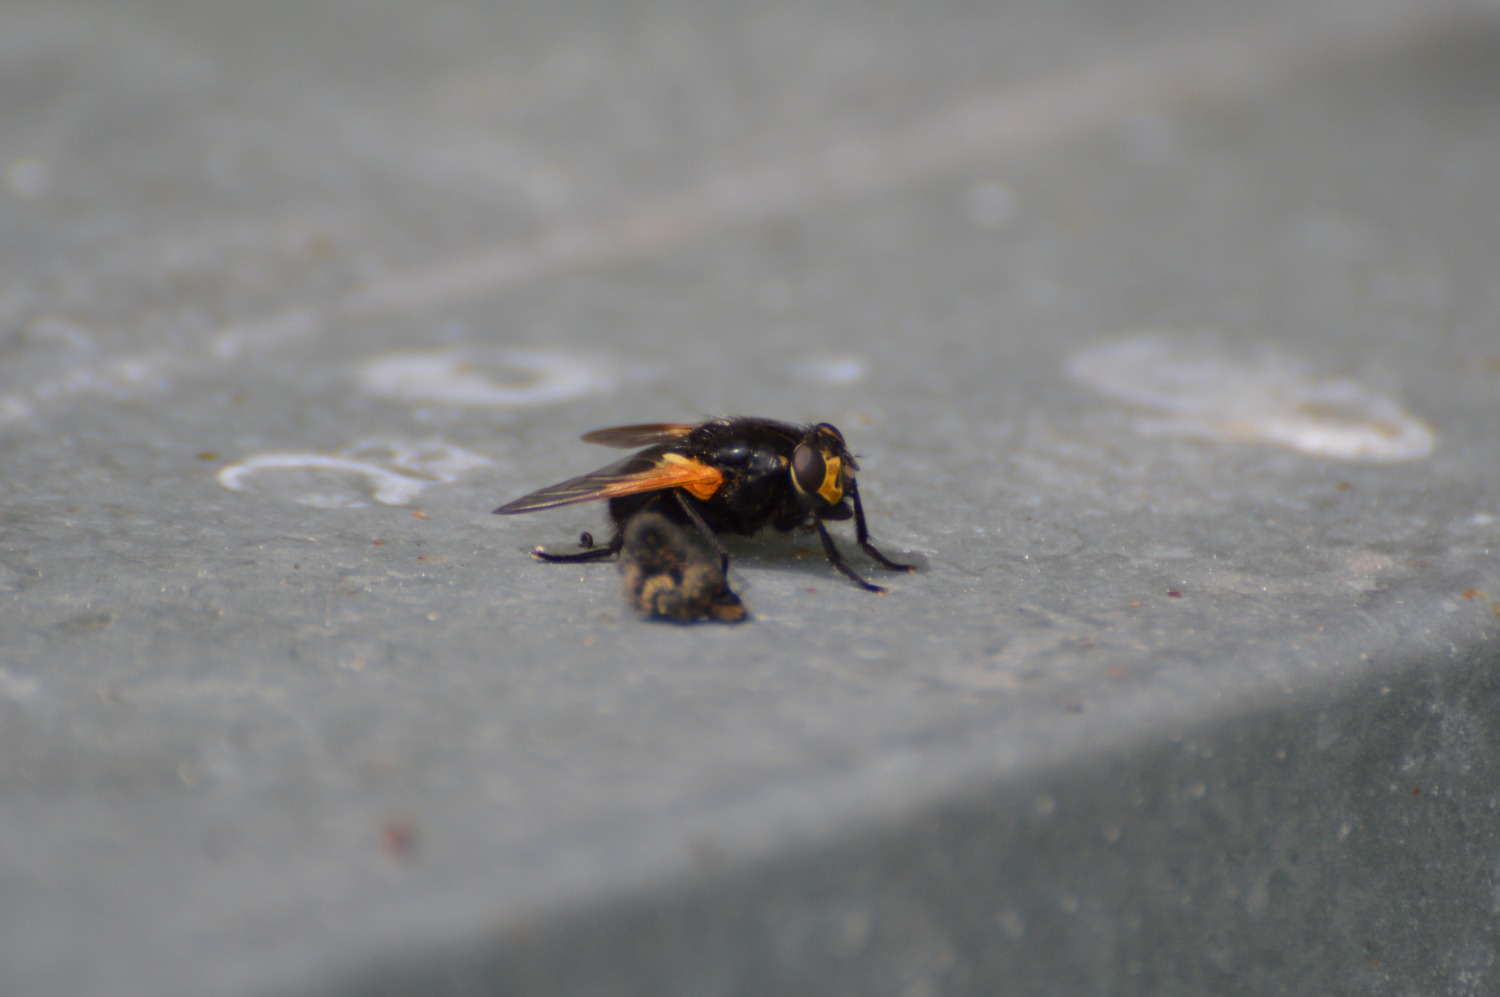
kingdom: Animalia
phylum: Arthropoda
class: Insecta
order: Diptera
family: Muscidae
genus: Mesembrina
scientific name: Mesembrina meridiana
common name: Gulvinget flue
